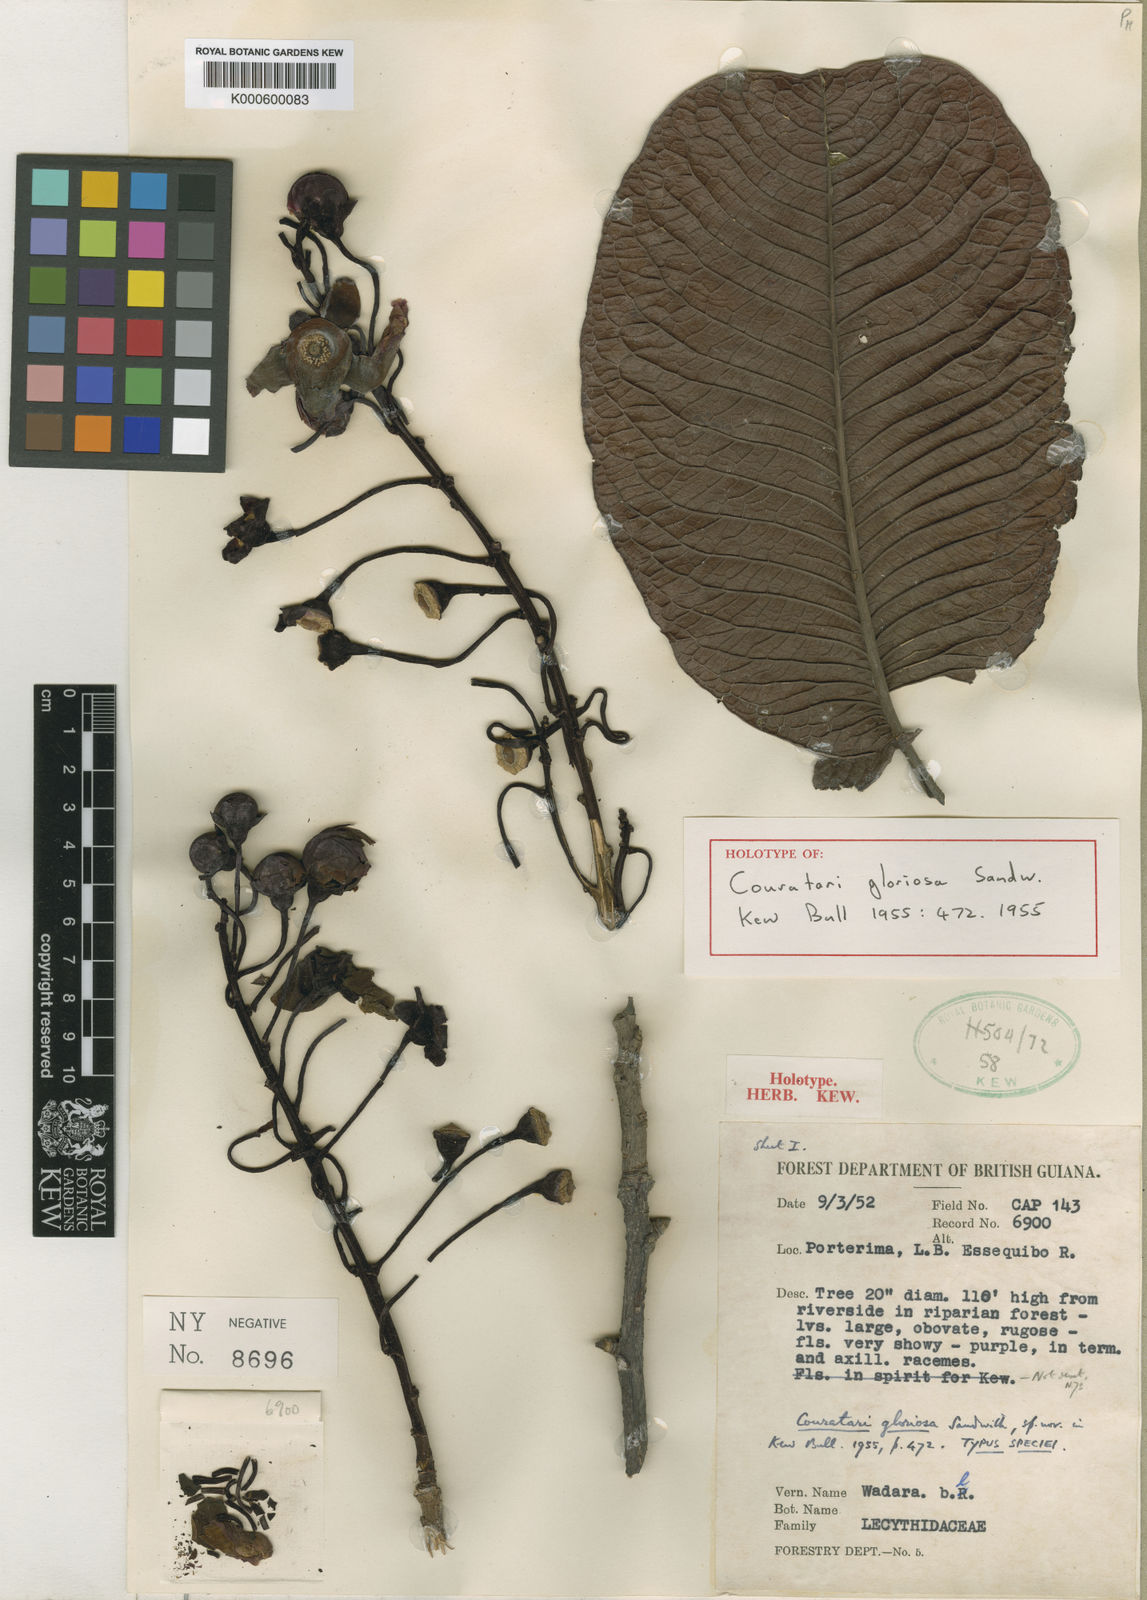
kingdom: Plantae
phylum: Tracheophyta
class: Magnoliopsida
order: Ericales
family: Lecythidaceae
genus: Couratari
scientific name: Couratari gloriosa
